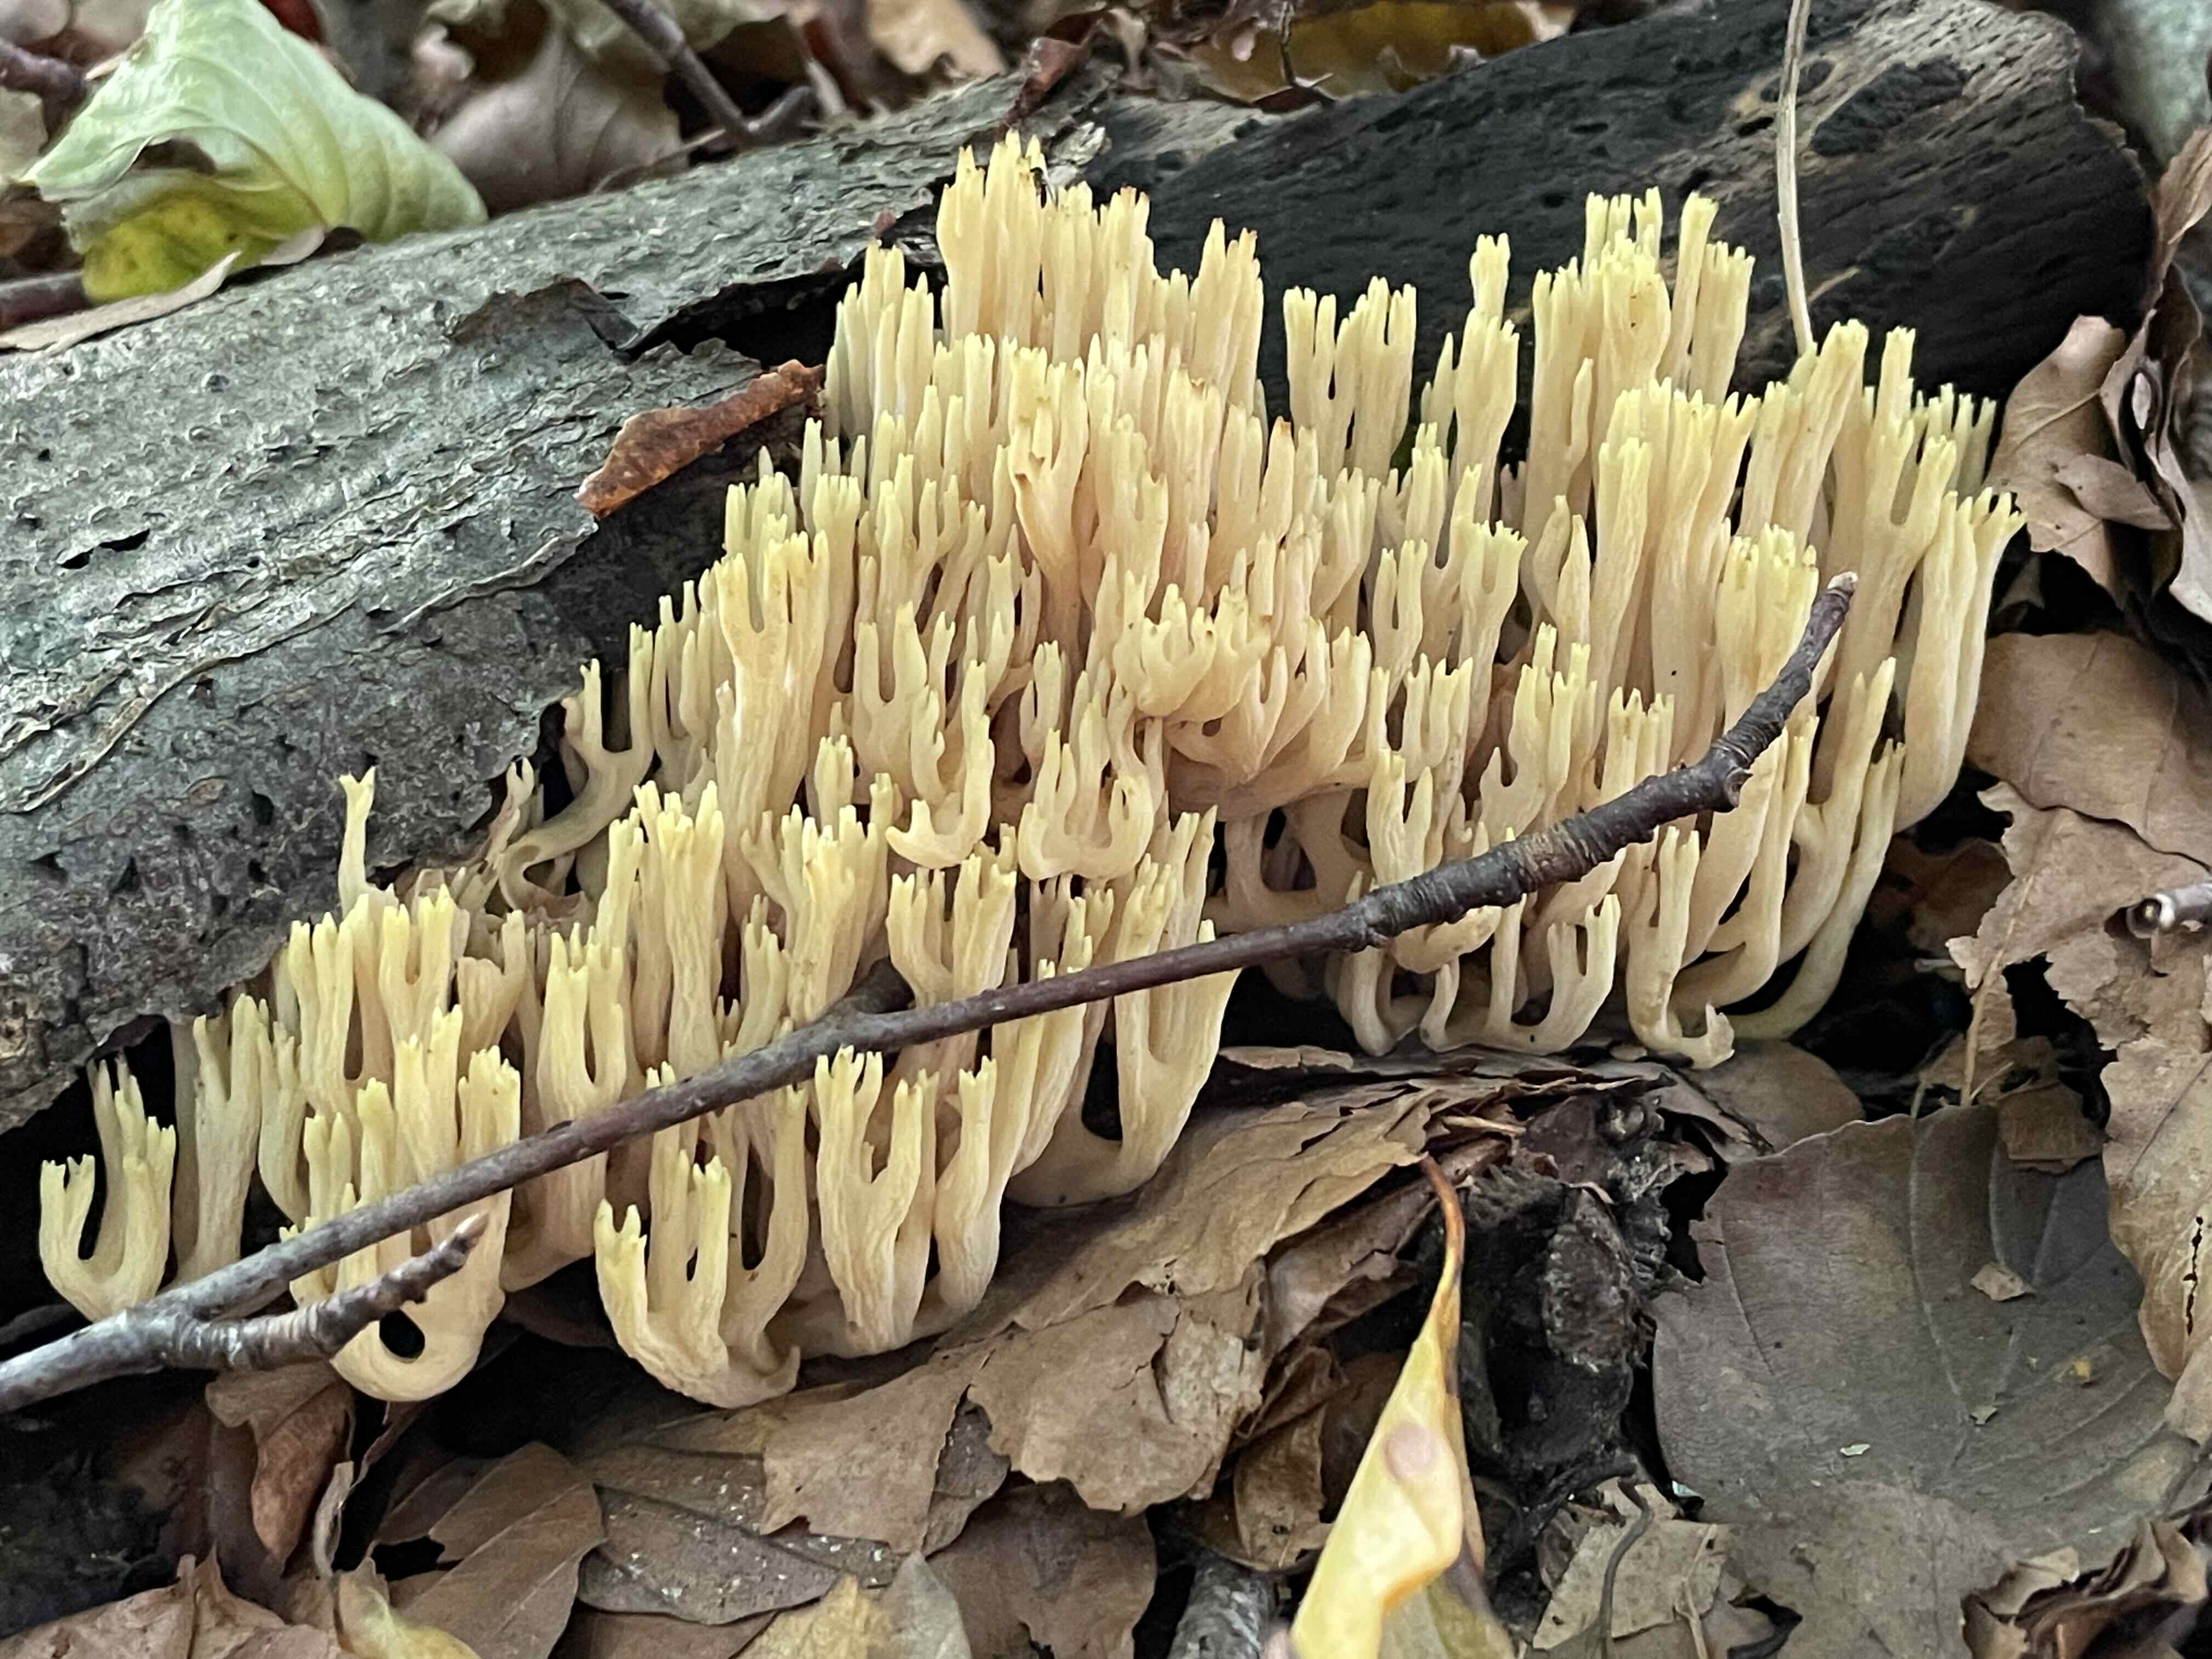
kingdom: Fungi
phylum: Basidiomycota
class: Agaricomycetes
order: Gomphales
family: Gomphaceae
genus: Ramaria
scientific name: Ramaria stricta
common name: rank koralsvamp
